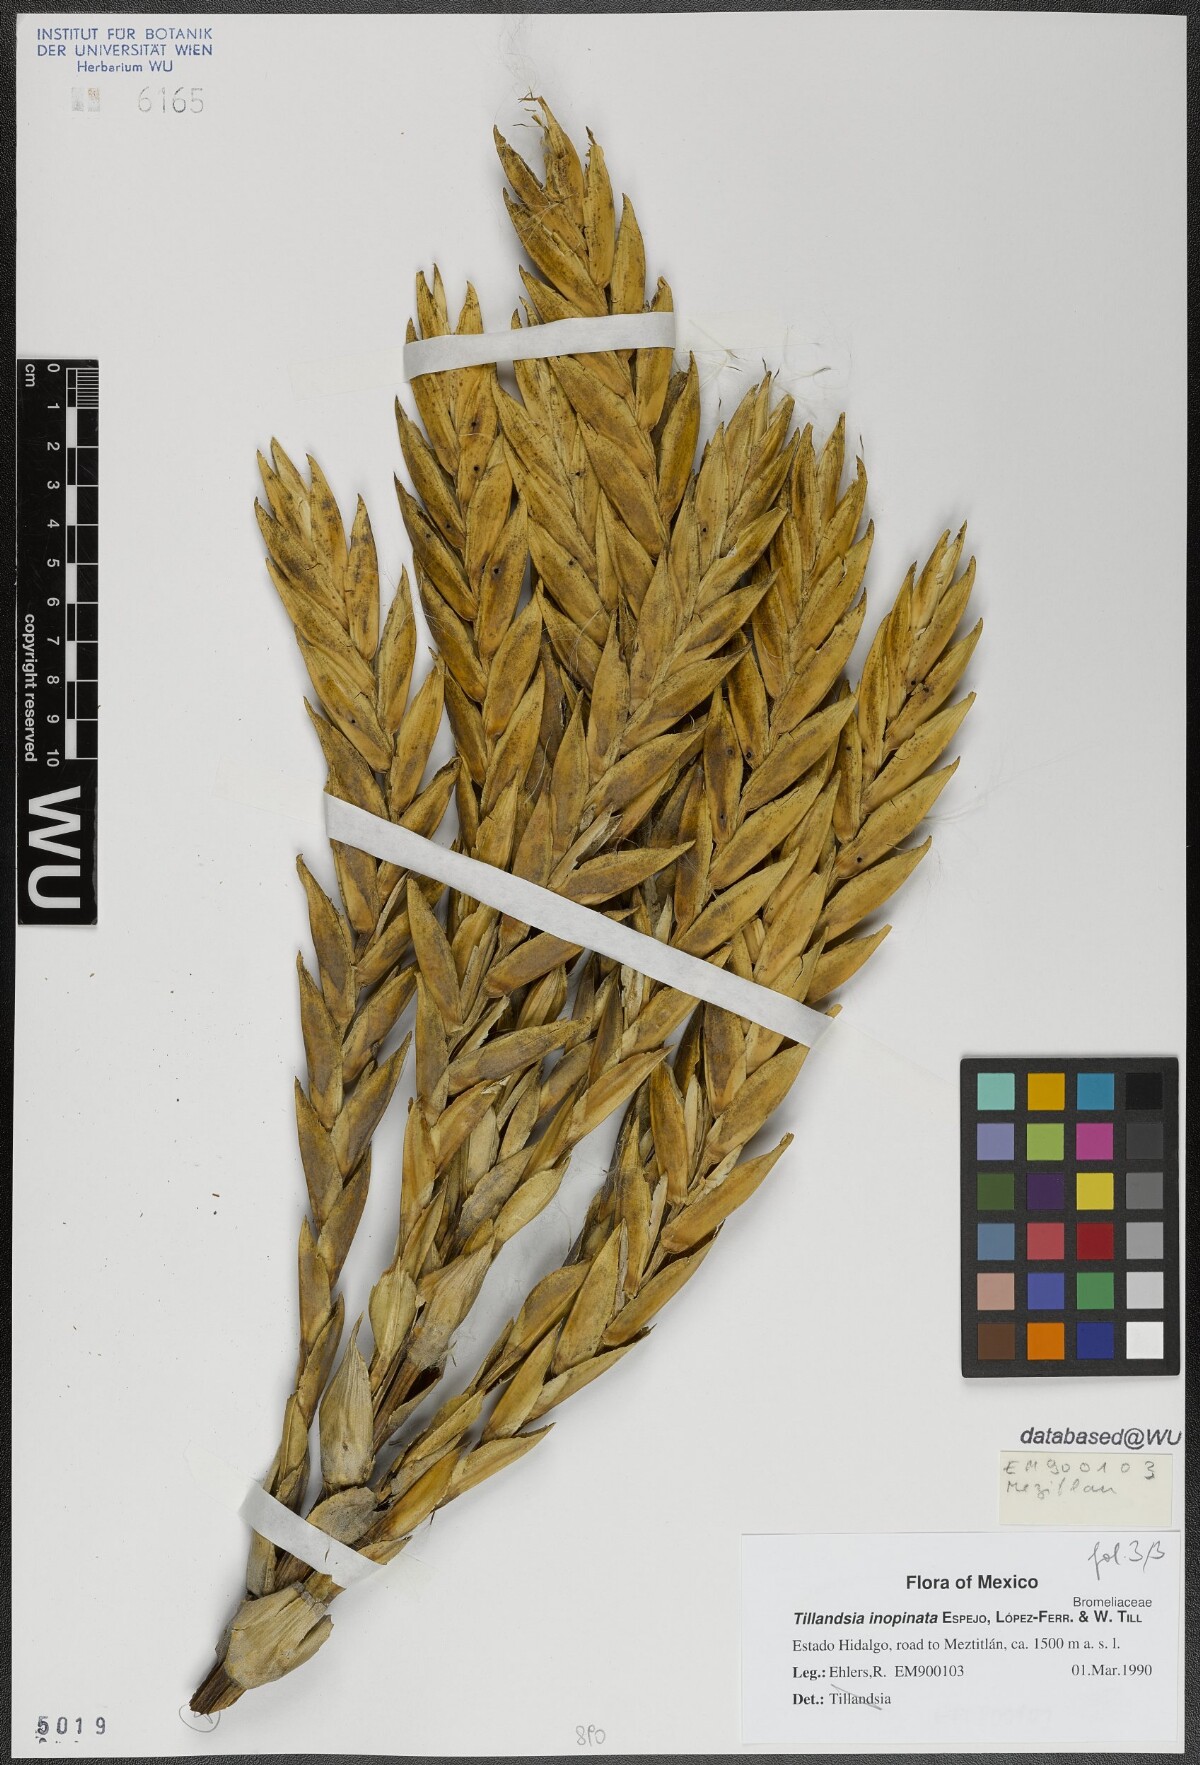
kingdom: Plantae
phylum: Tracheophyta
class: Liliopsida
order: Poales
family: Bromeliaceae
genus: Tillandsia
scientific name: Tillandsia inopinata
